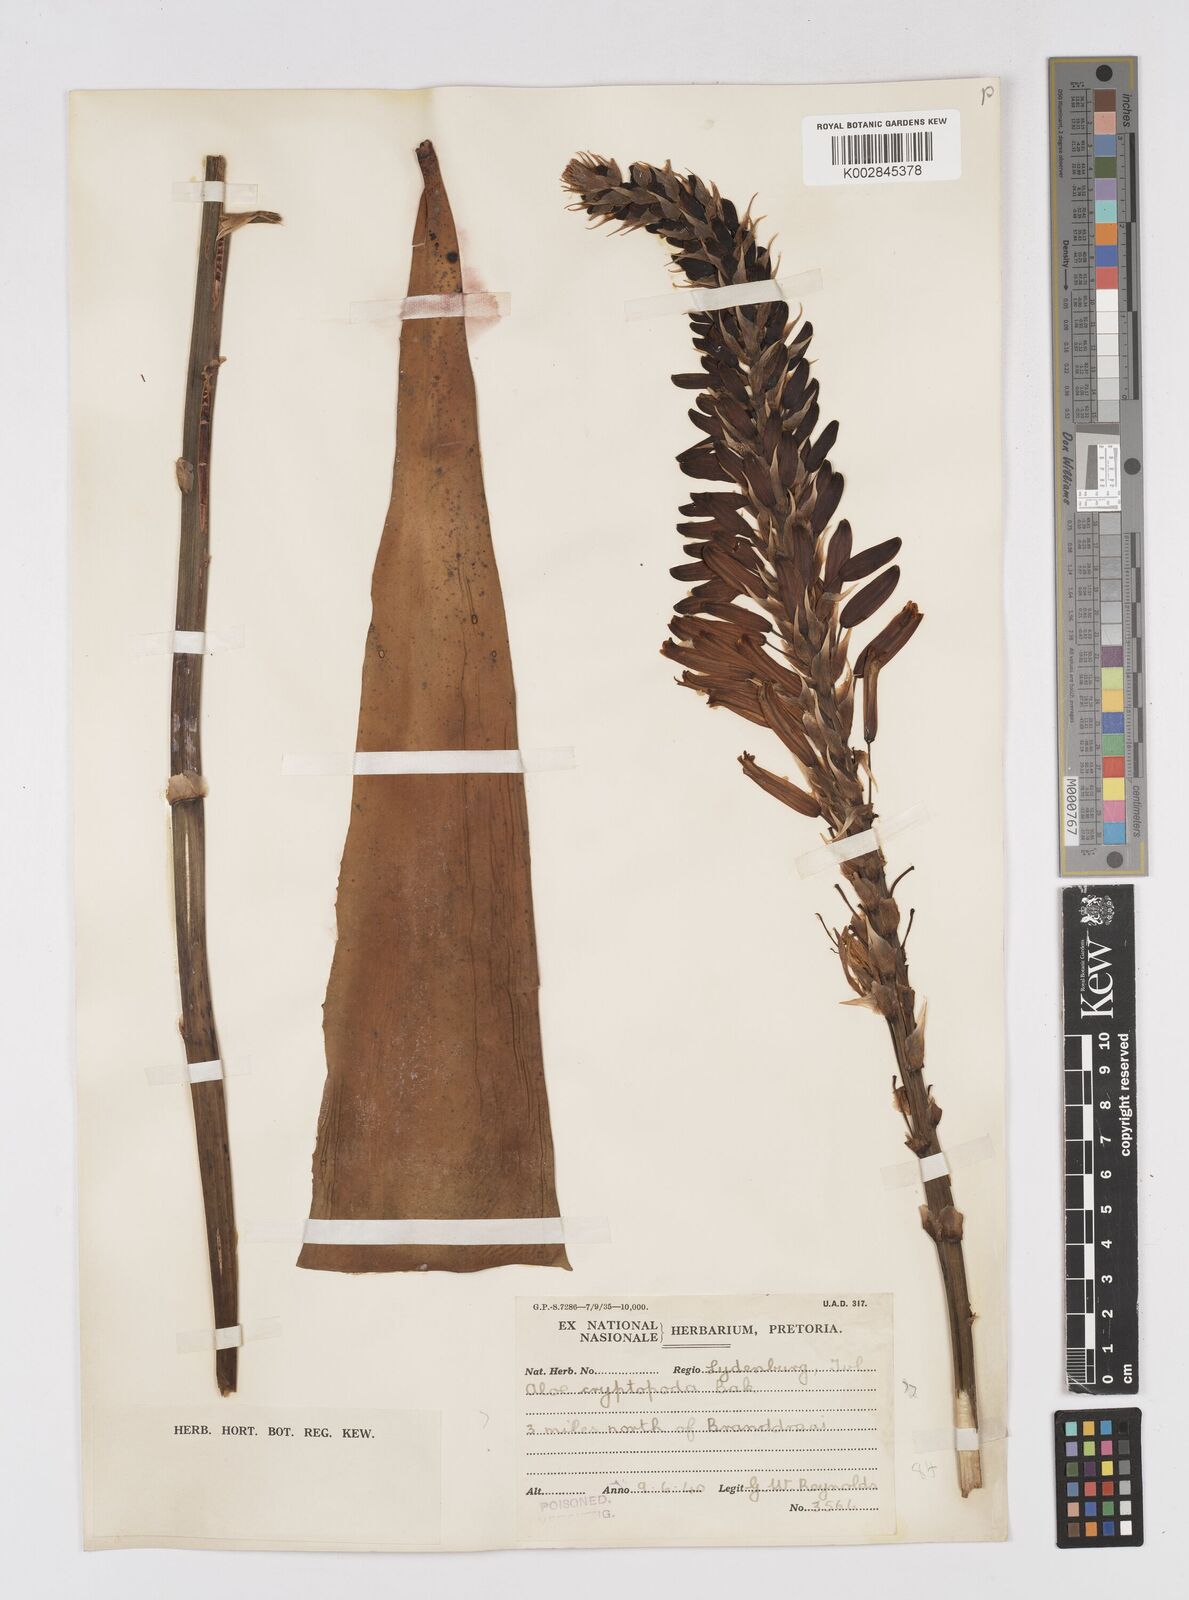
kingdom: Plantae
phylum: Tracheophyta
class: Liliopsida
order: Asparagales
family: Asphodelaceae
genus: Aloe
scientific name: Aloe cryptopoda
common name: Dr. kirk's aloe
